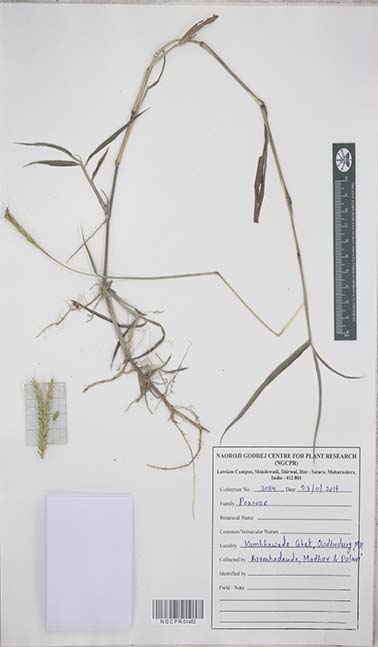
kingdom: Plantae
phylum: Tracheophyta
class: Liliopsida
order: Poales
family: Poaceae
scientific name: Poaceae
